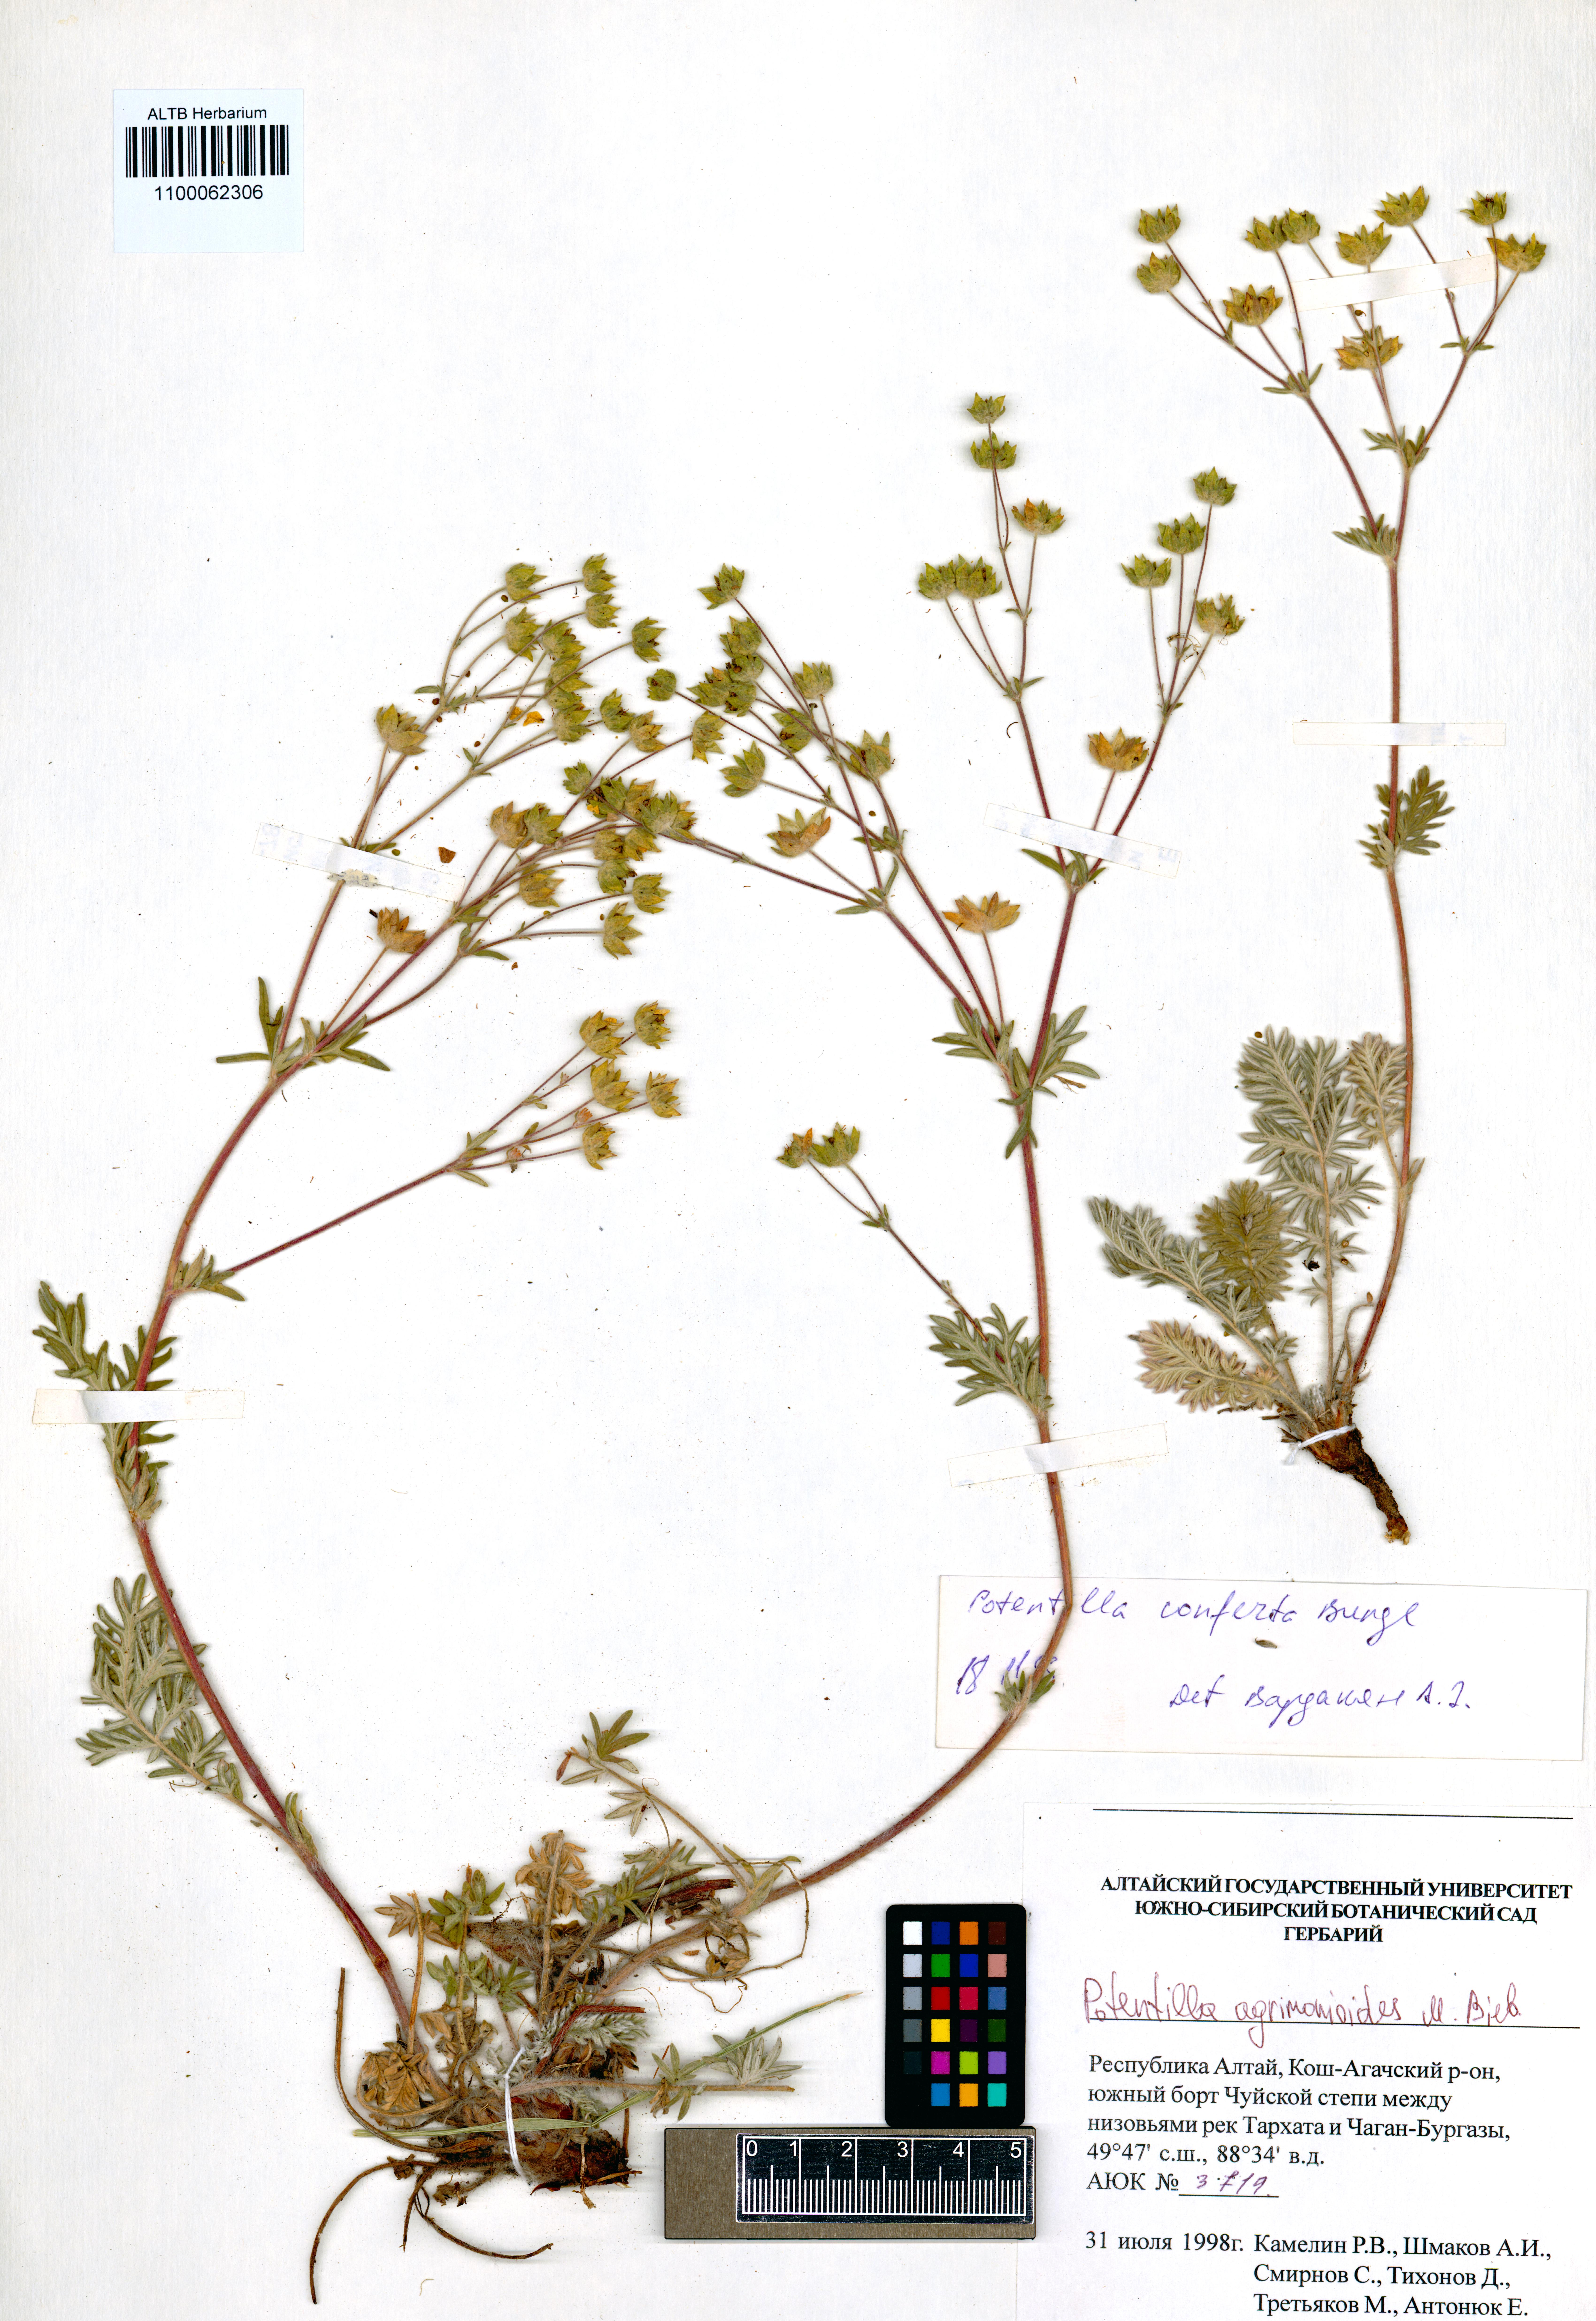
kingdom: Plantae
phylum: Tracheophyta
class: Magnoliopsida
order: Rosales
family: Rosaceae
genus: Potentilla
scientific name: Potentilla agrimonioides
